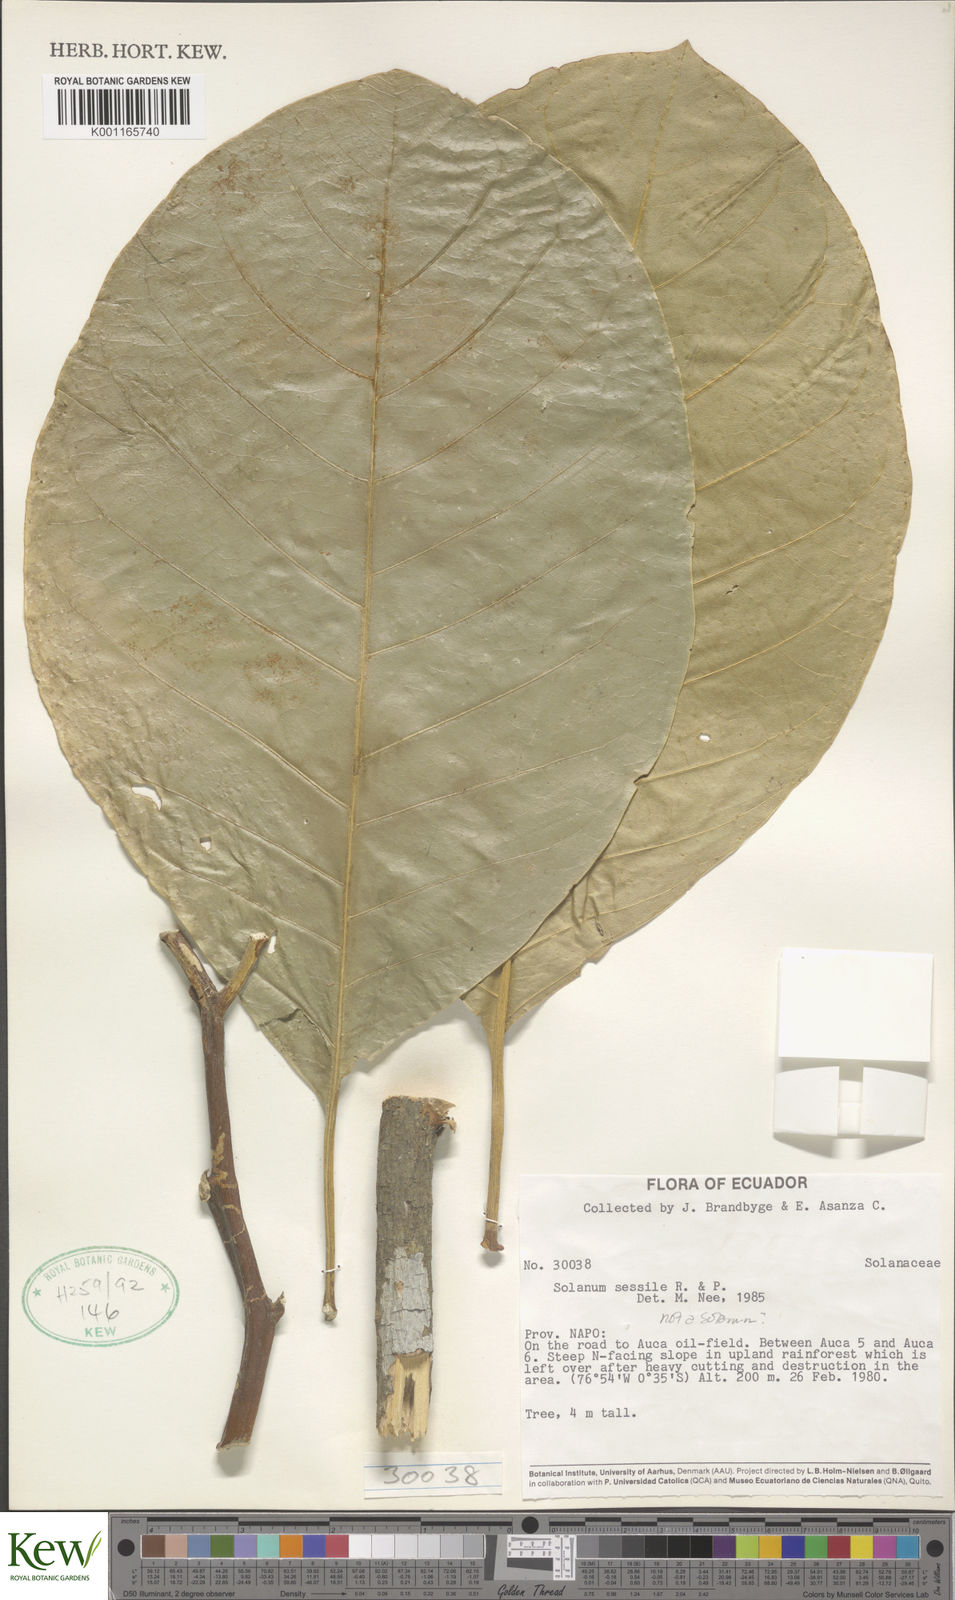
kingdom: Plantae
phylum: Tracheophyta
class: Magnoliopsida
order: Solanales
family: Solanaceae
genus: Solanum
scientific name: Solanum sessile
